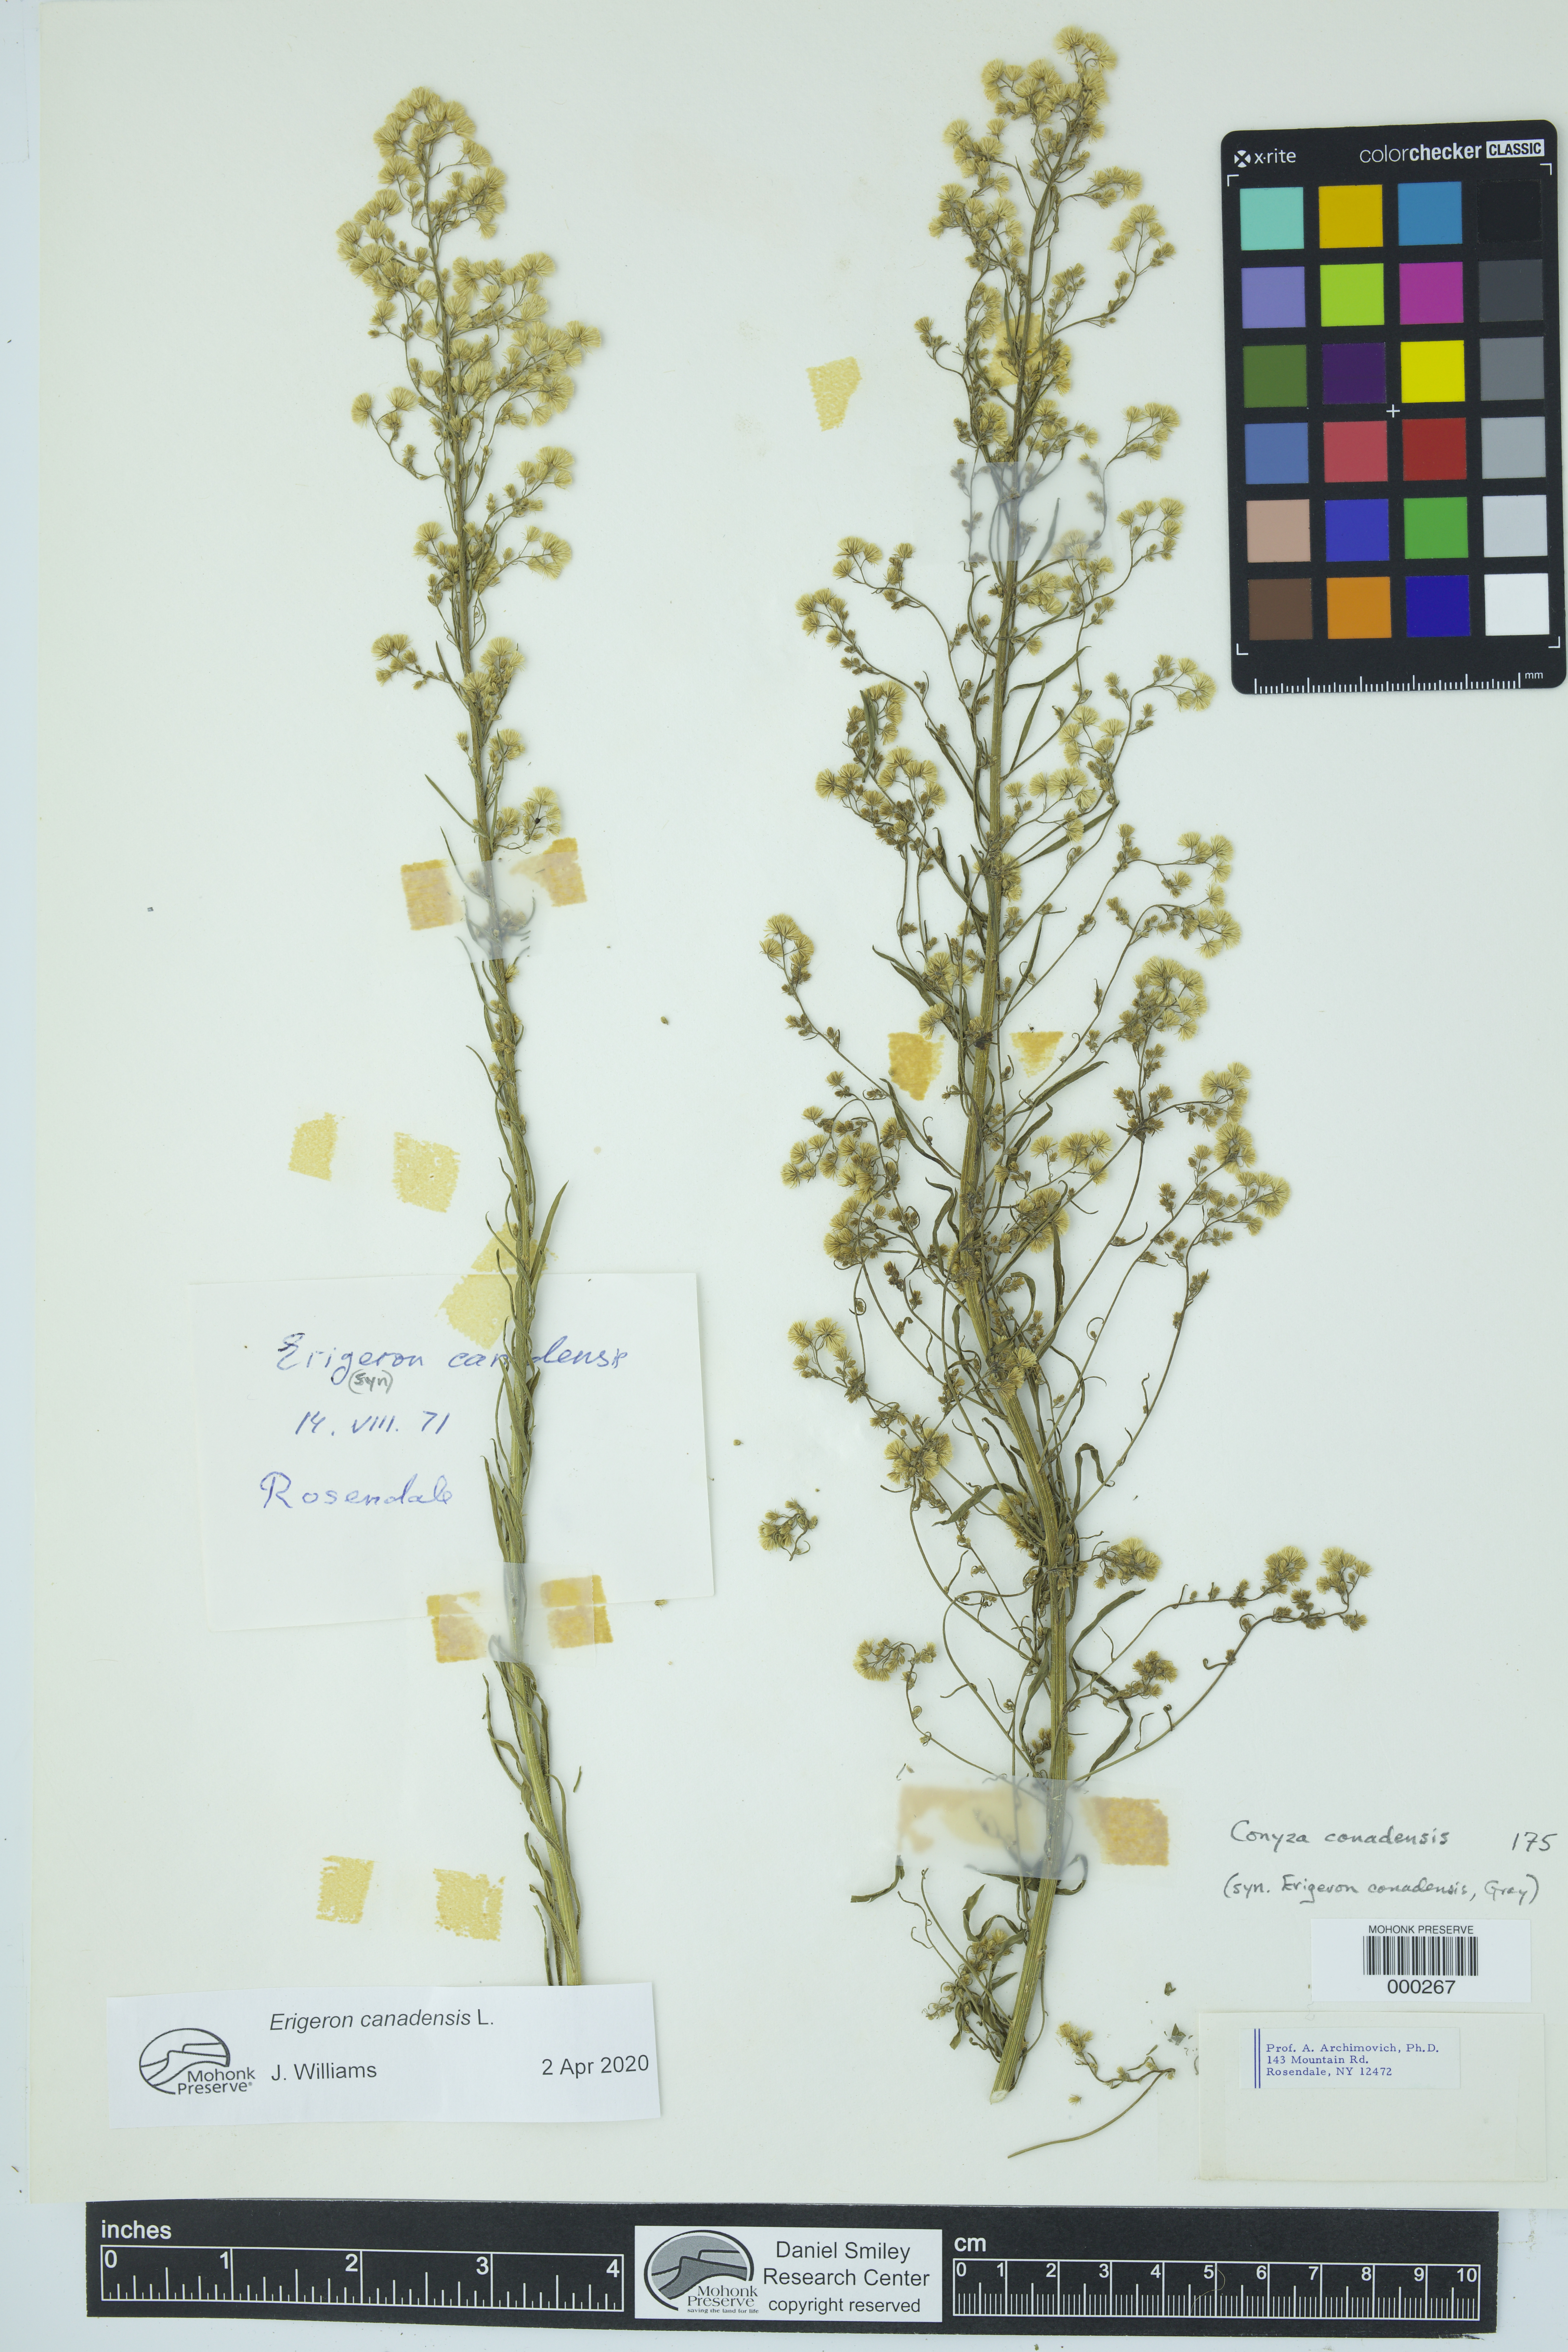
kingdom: Plantae
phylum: Tracheophyta
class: Magnoliopsida
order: Asterales
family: Asteraceae
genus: Erigeron
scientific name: Erigeron canadensis
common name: Canadian fleabane
